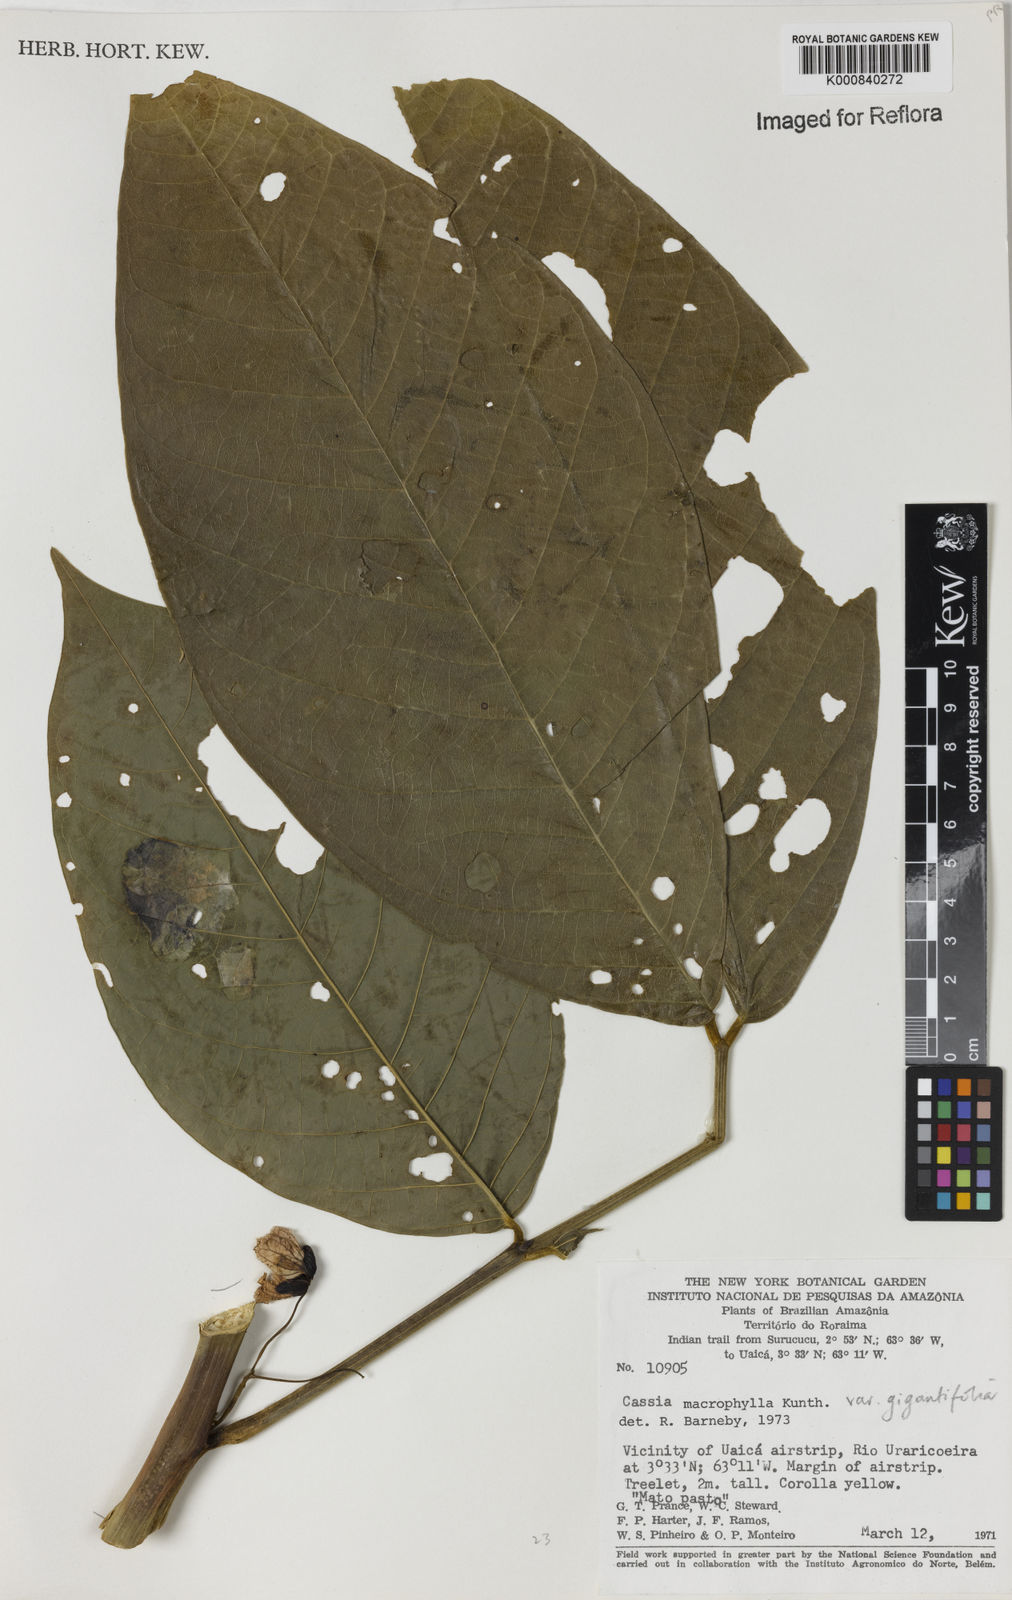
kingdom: Plantae
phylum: Tracheophyta
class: Magnoliopsida
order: Fabales
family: Fabaceae
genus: Senna
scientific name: Senna macrophylla
